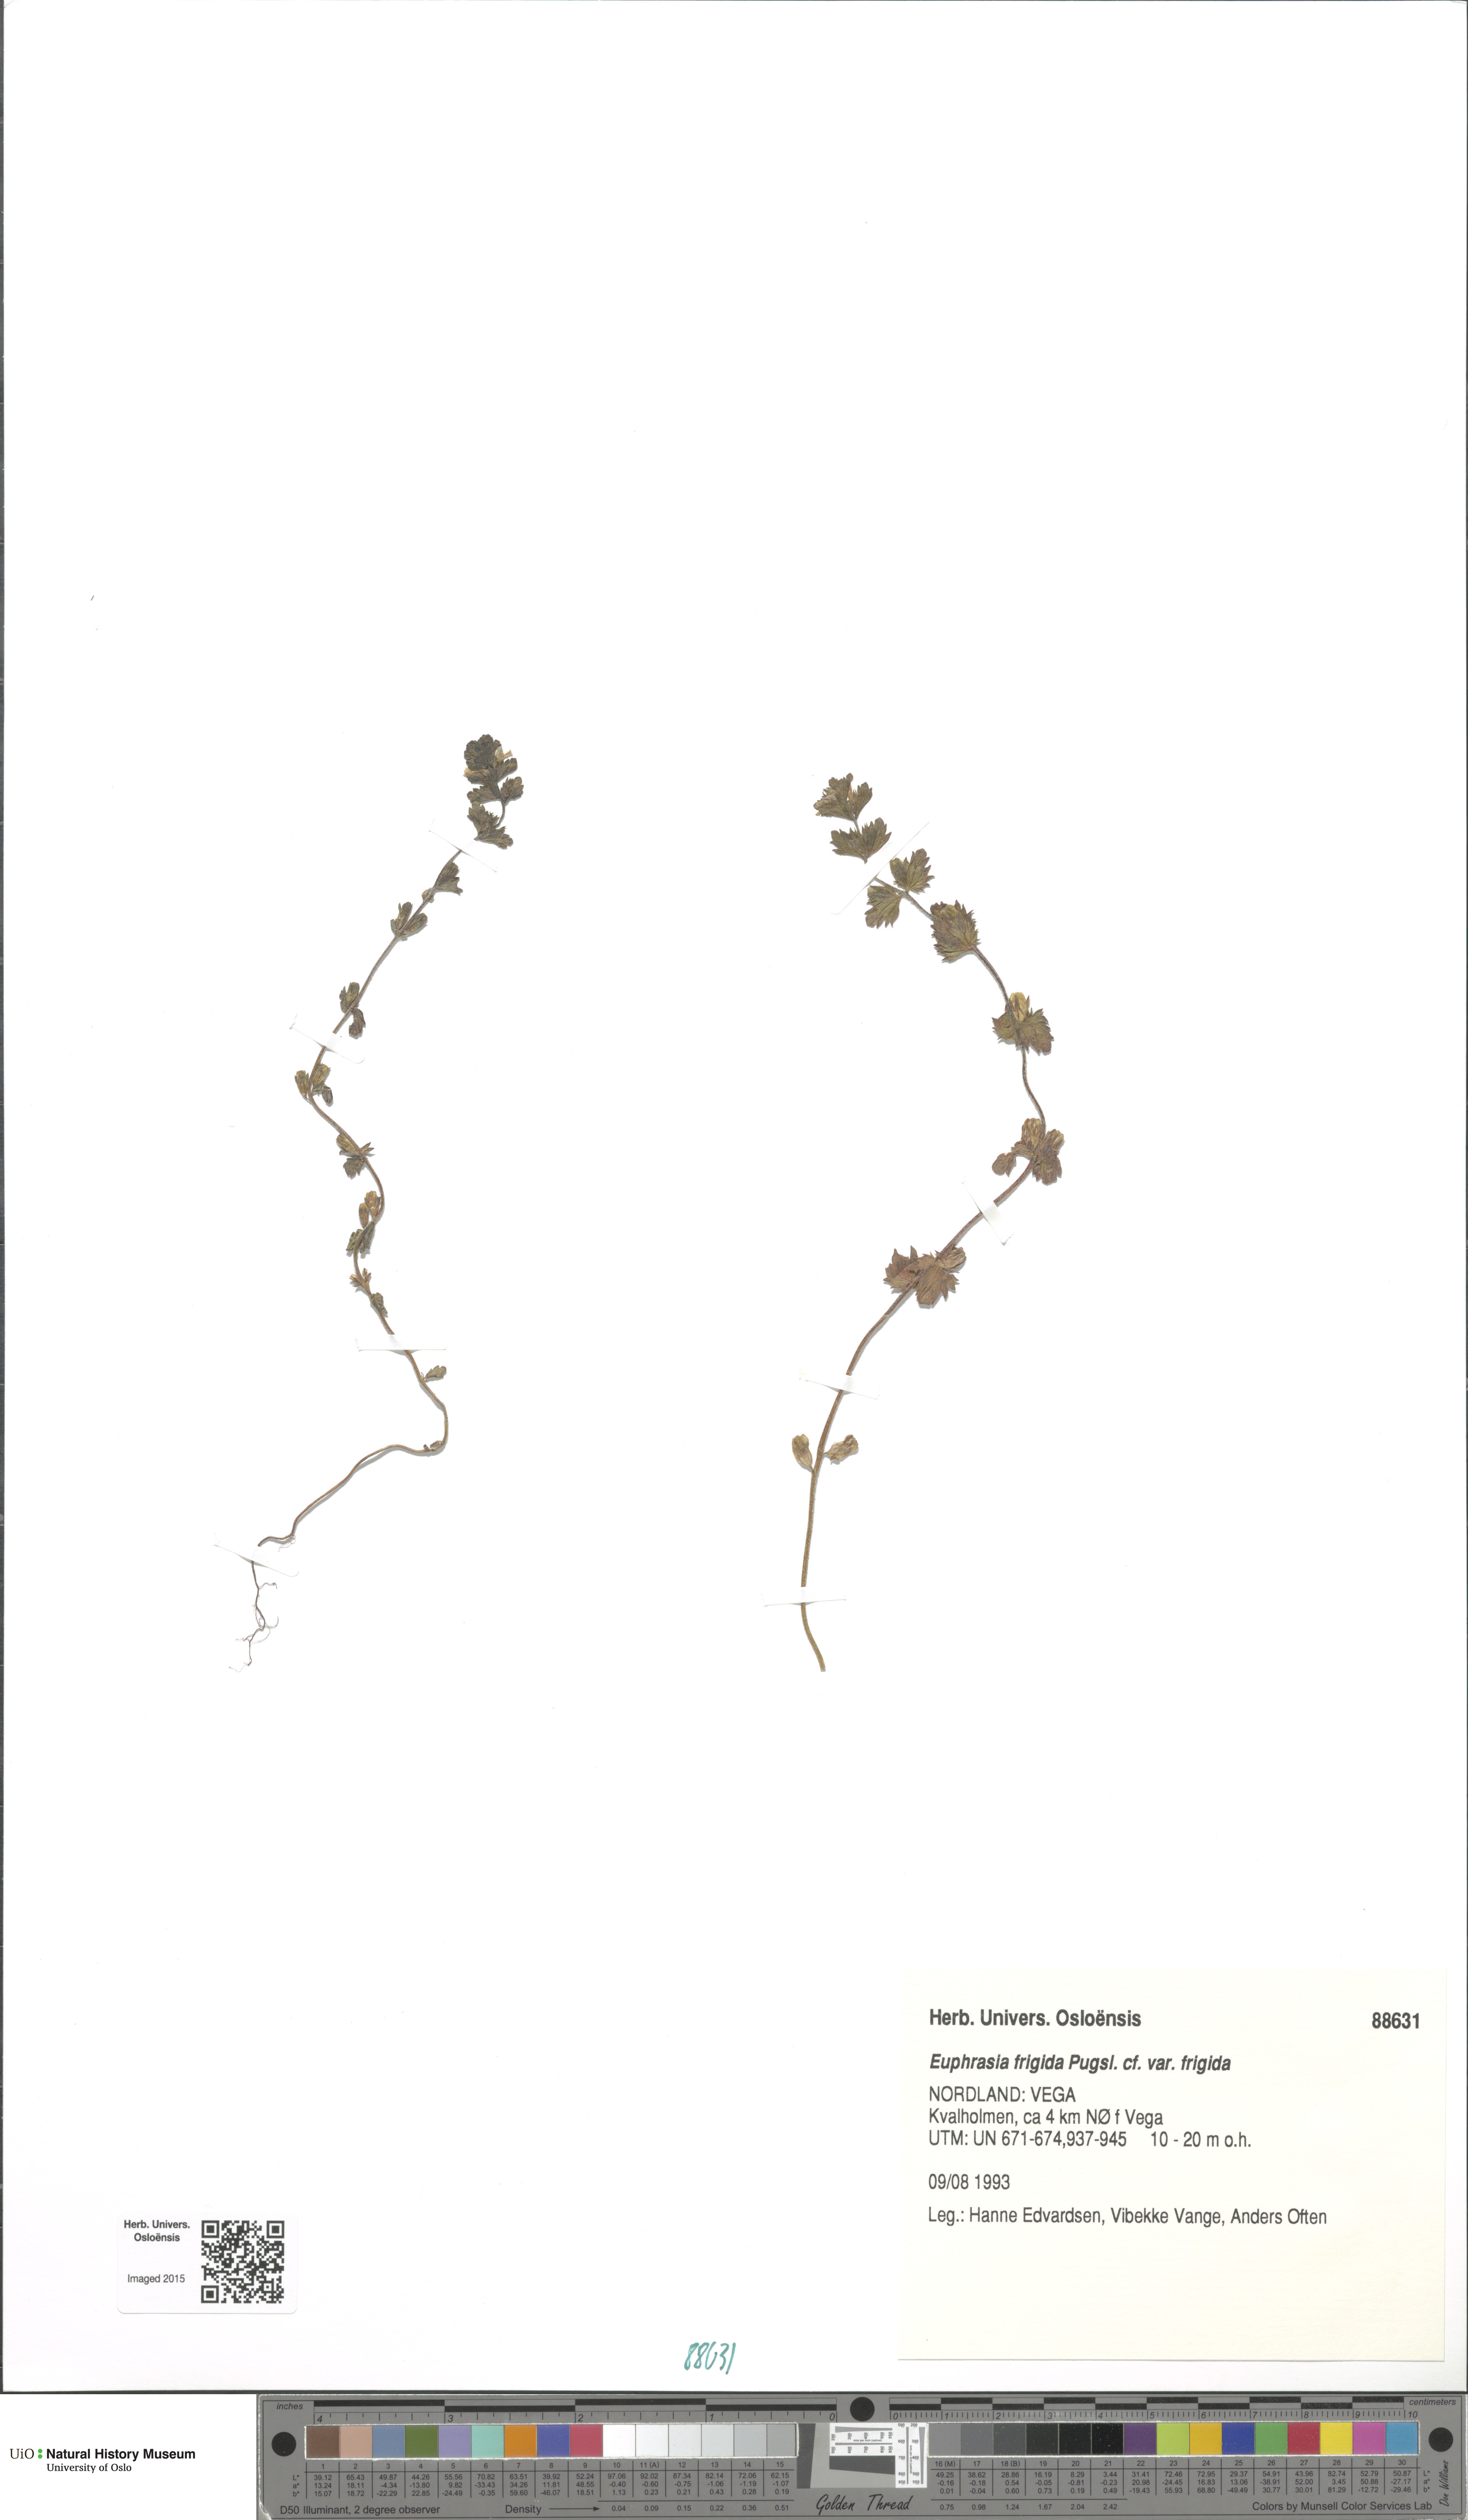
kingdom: Plantae
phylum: Tracheophyta
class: Magnoliopsida
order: Lamiales
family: Orobanchaceae
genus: Euphrasia
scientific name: Euphrasia wettsteinii
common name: Wettstein's eyebright
